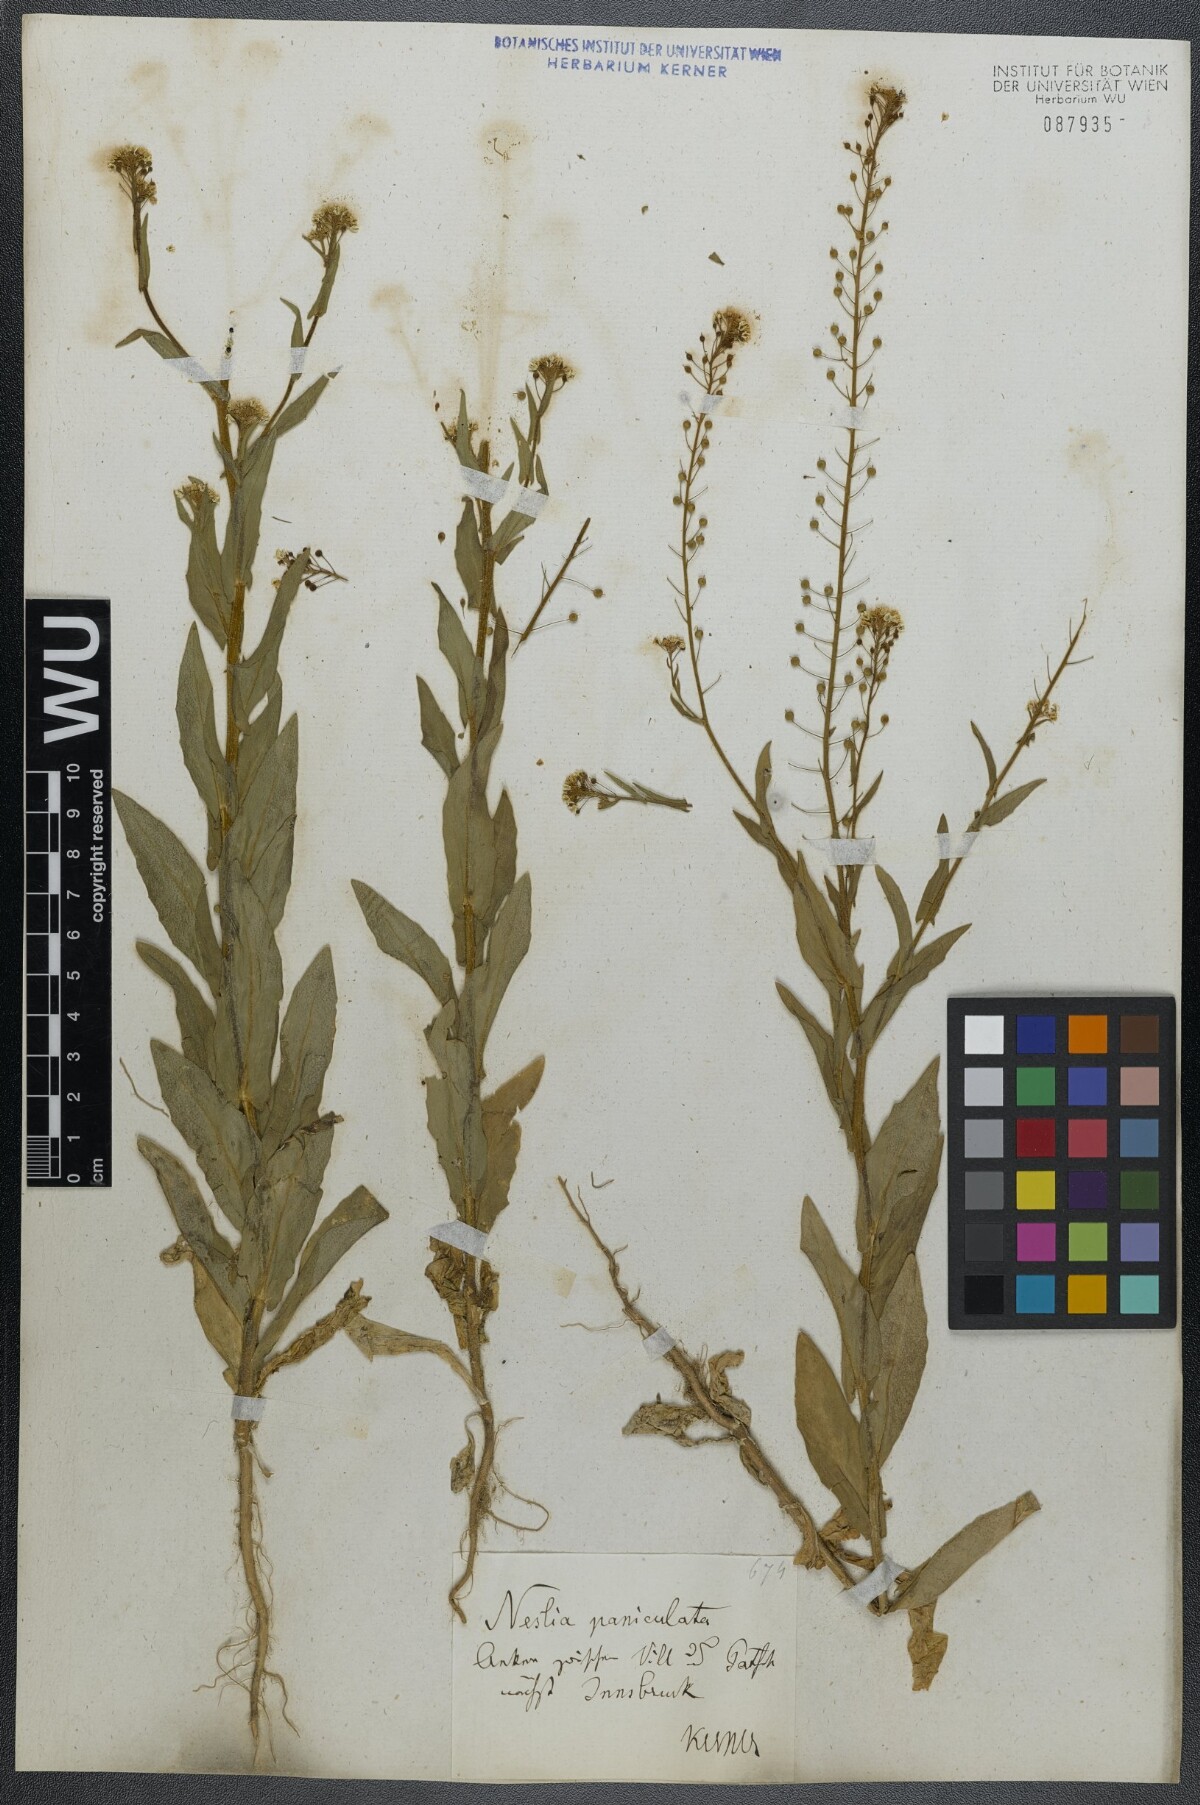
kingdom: Plantae
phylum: Tracheophyta
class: Magnoliopsida
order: Brassicales
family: Brassicaceae
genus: Neslia
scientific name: Neslia paniculata
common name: Ball mustard
